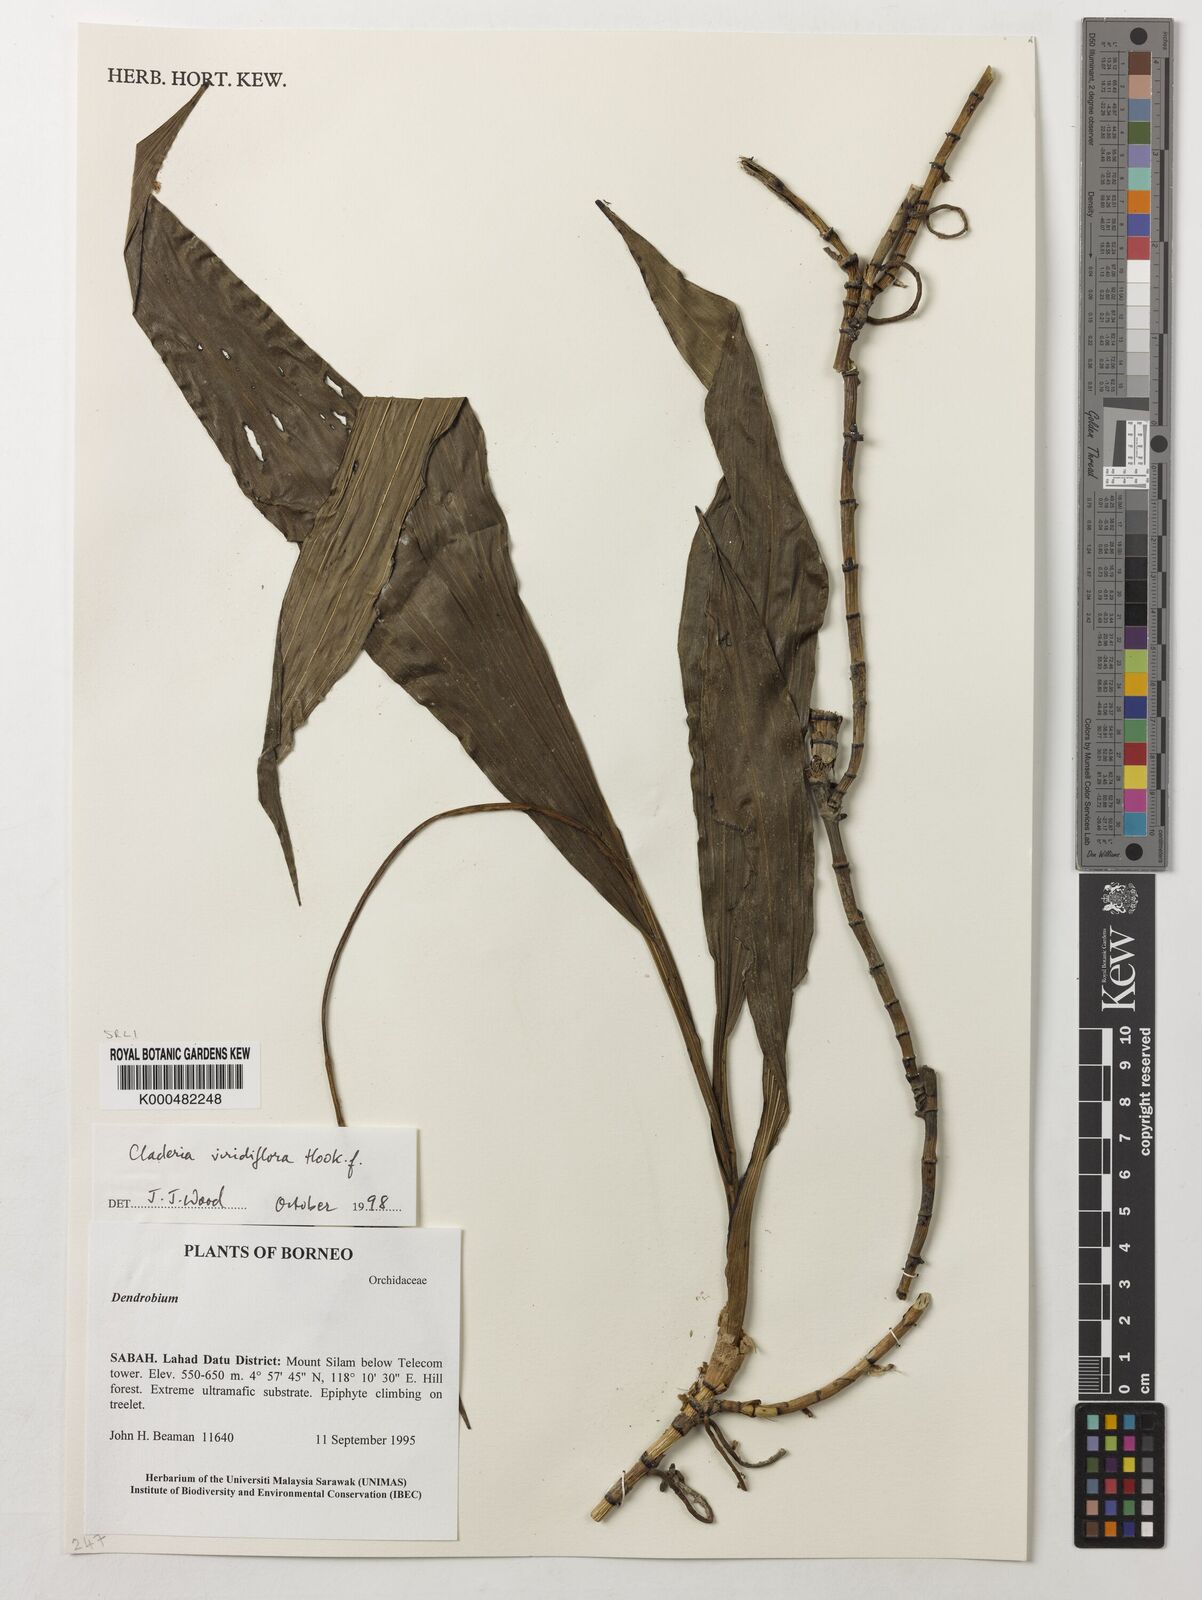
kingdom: Plantae
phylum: Tracheophyta
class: Liliopsida
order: Asparagales
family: Orchidaceae
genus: Claderia
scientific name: Claderia
